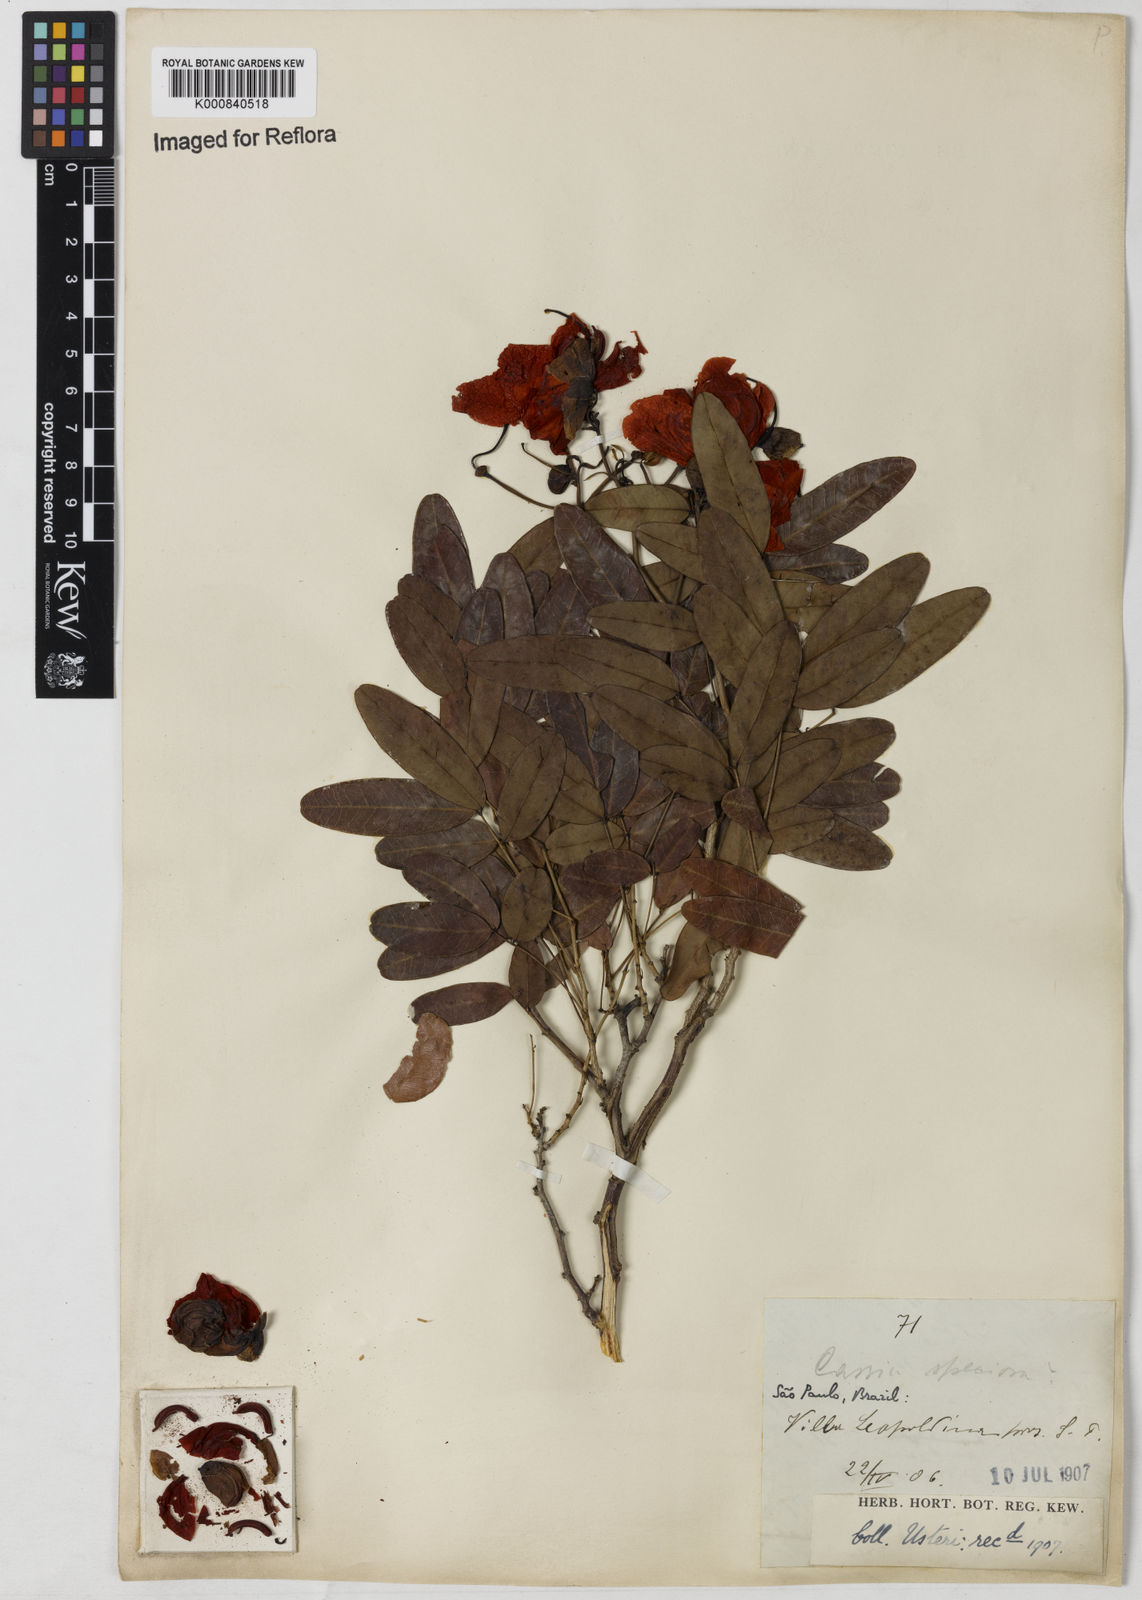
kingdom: Plantae
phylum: Tracheophyta
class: Magnoliopsida
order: Fabales
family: Fabaceae
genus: Senna
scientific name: Senna splendida
